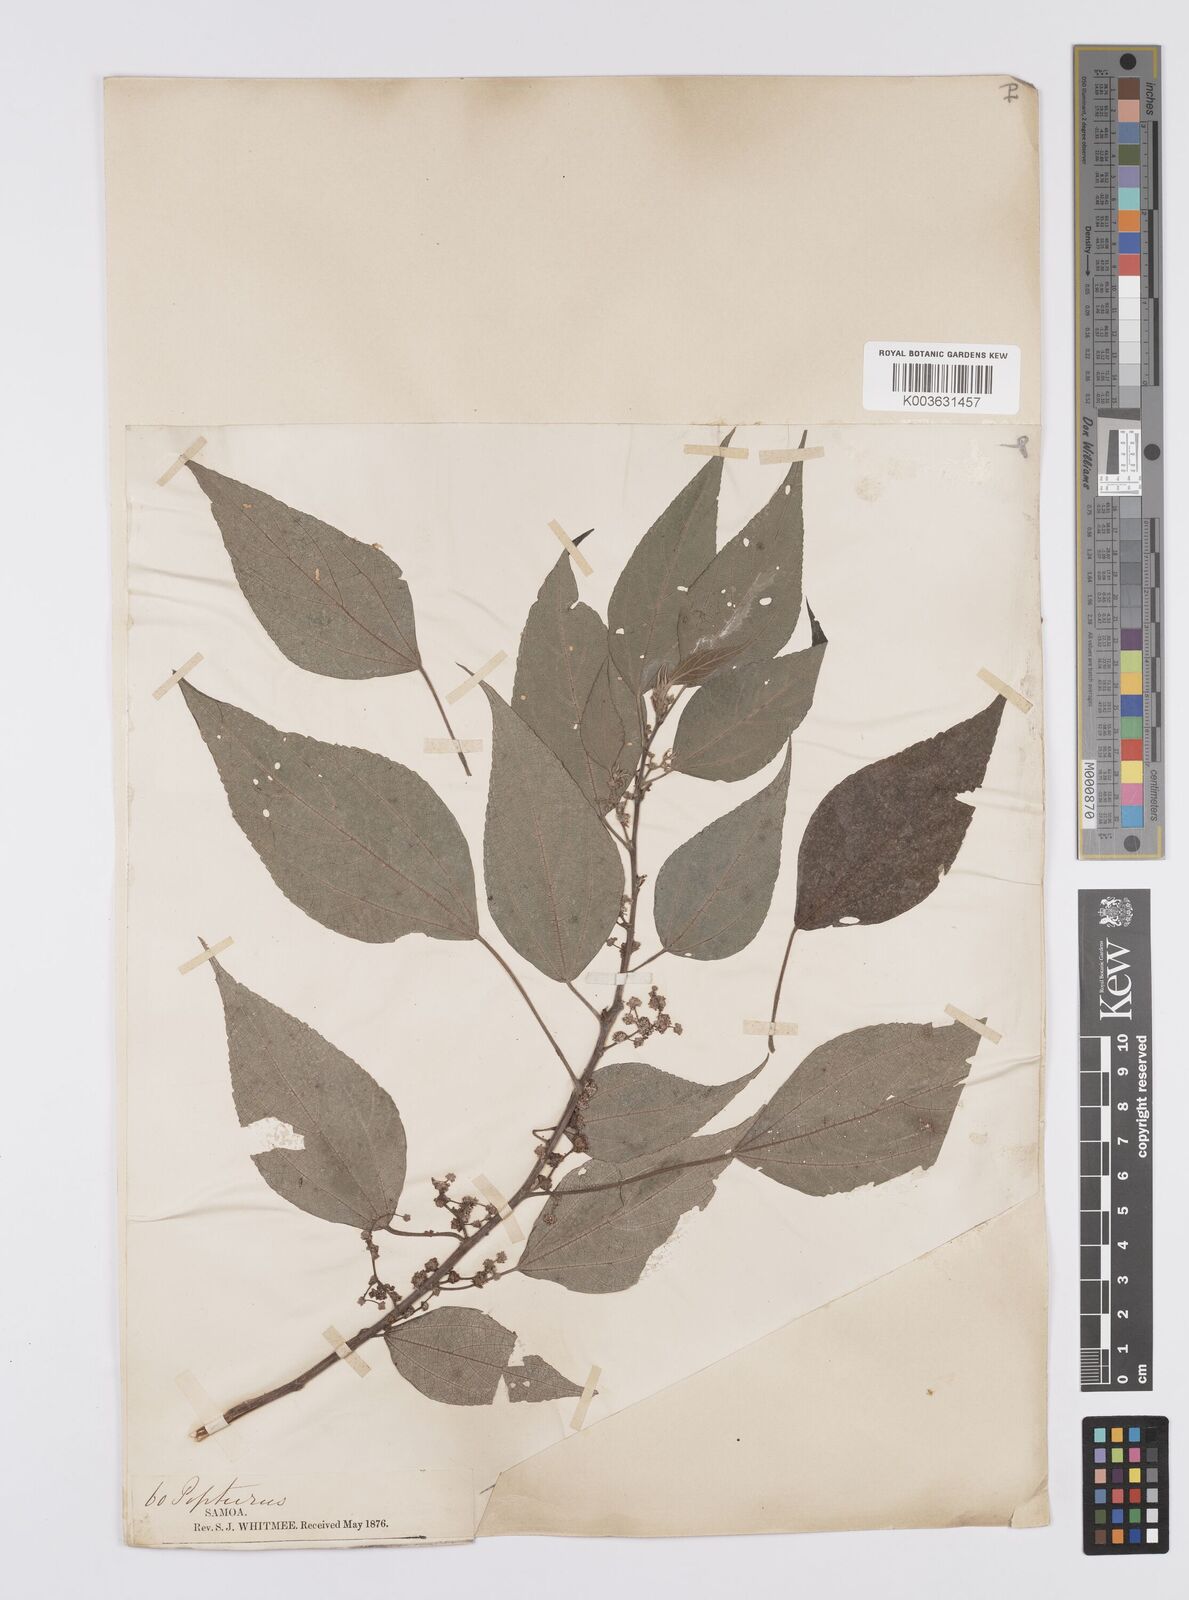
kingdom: Plantae
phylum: Tracheophyta
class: Magnoliopsida
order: Rosales
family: Urticaceae
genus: Pipturus
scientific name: Pipturus
